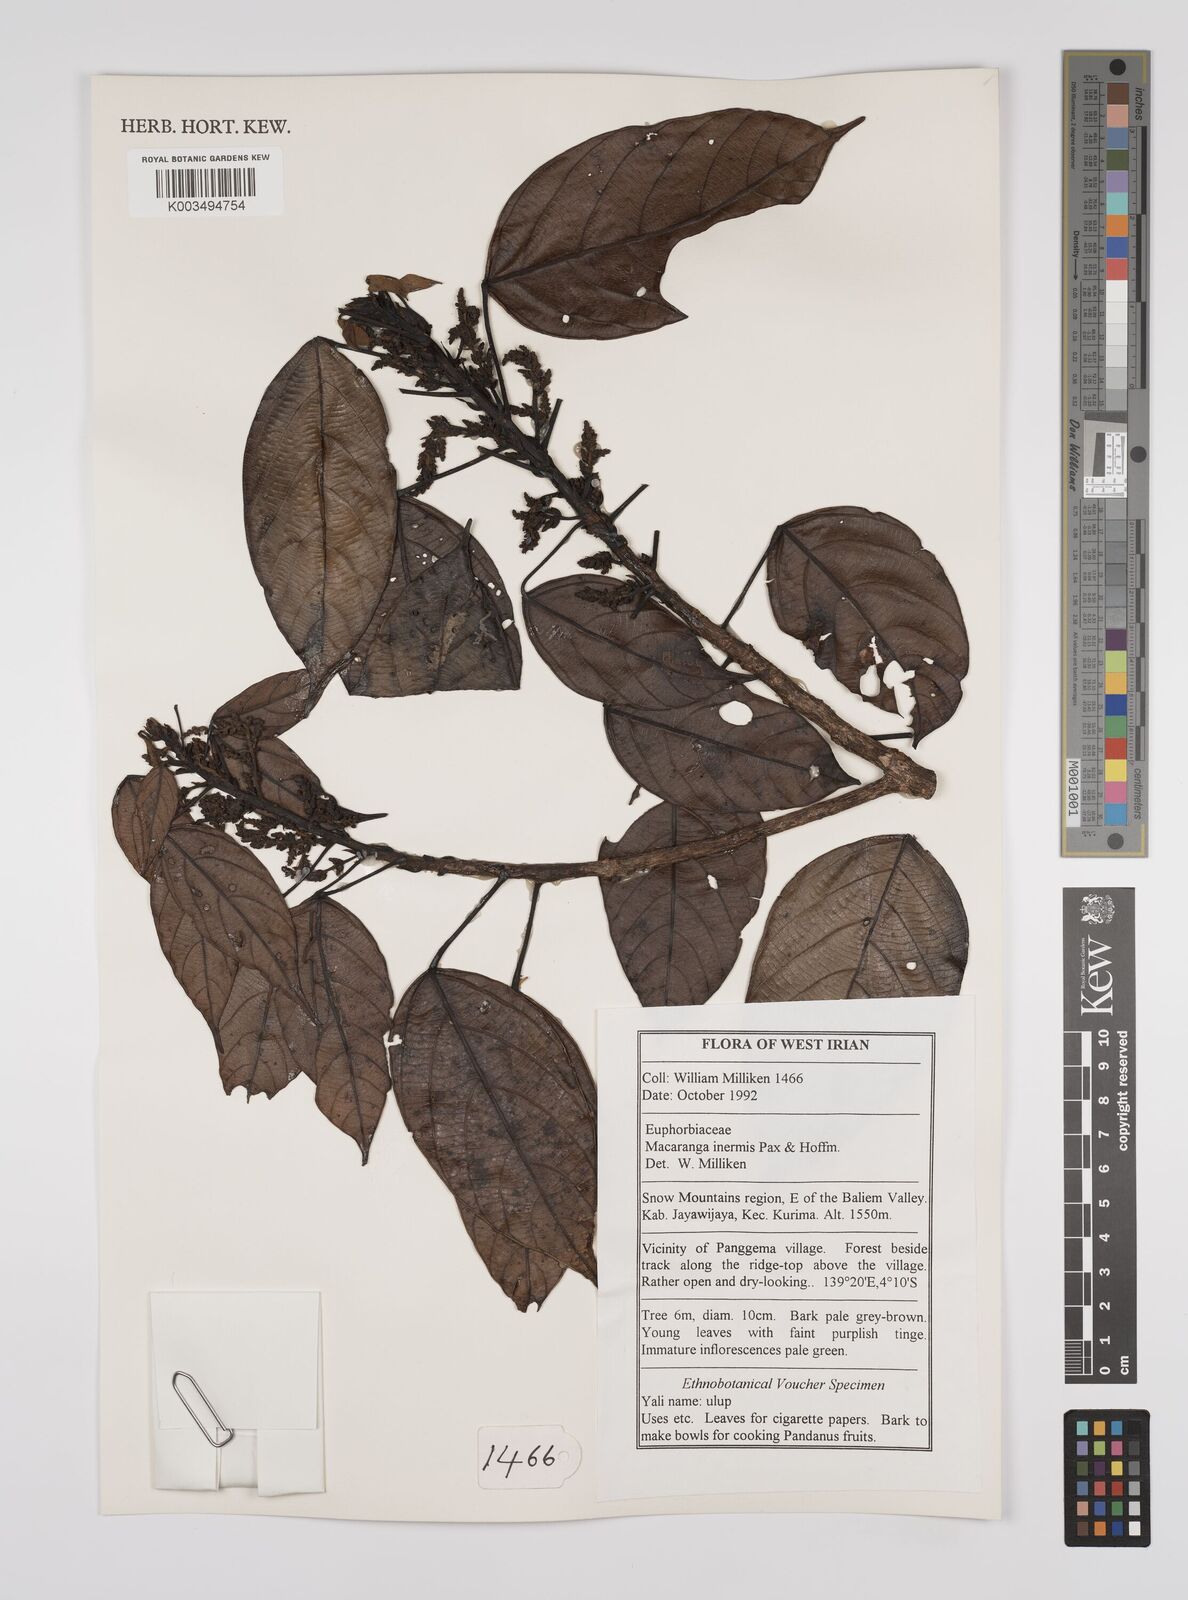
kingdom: Plantae
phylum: Tracheophyta
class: Magnoliopsida
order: Malpighiales
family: Euphorbiaceae
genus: Macaranga
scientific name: Macaranga inermis
